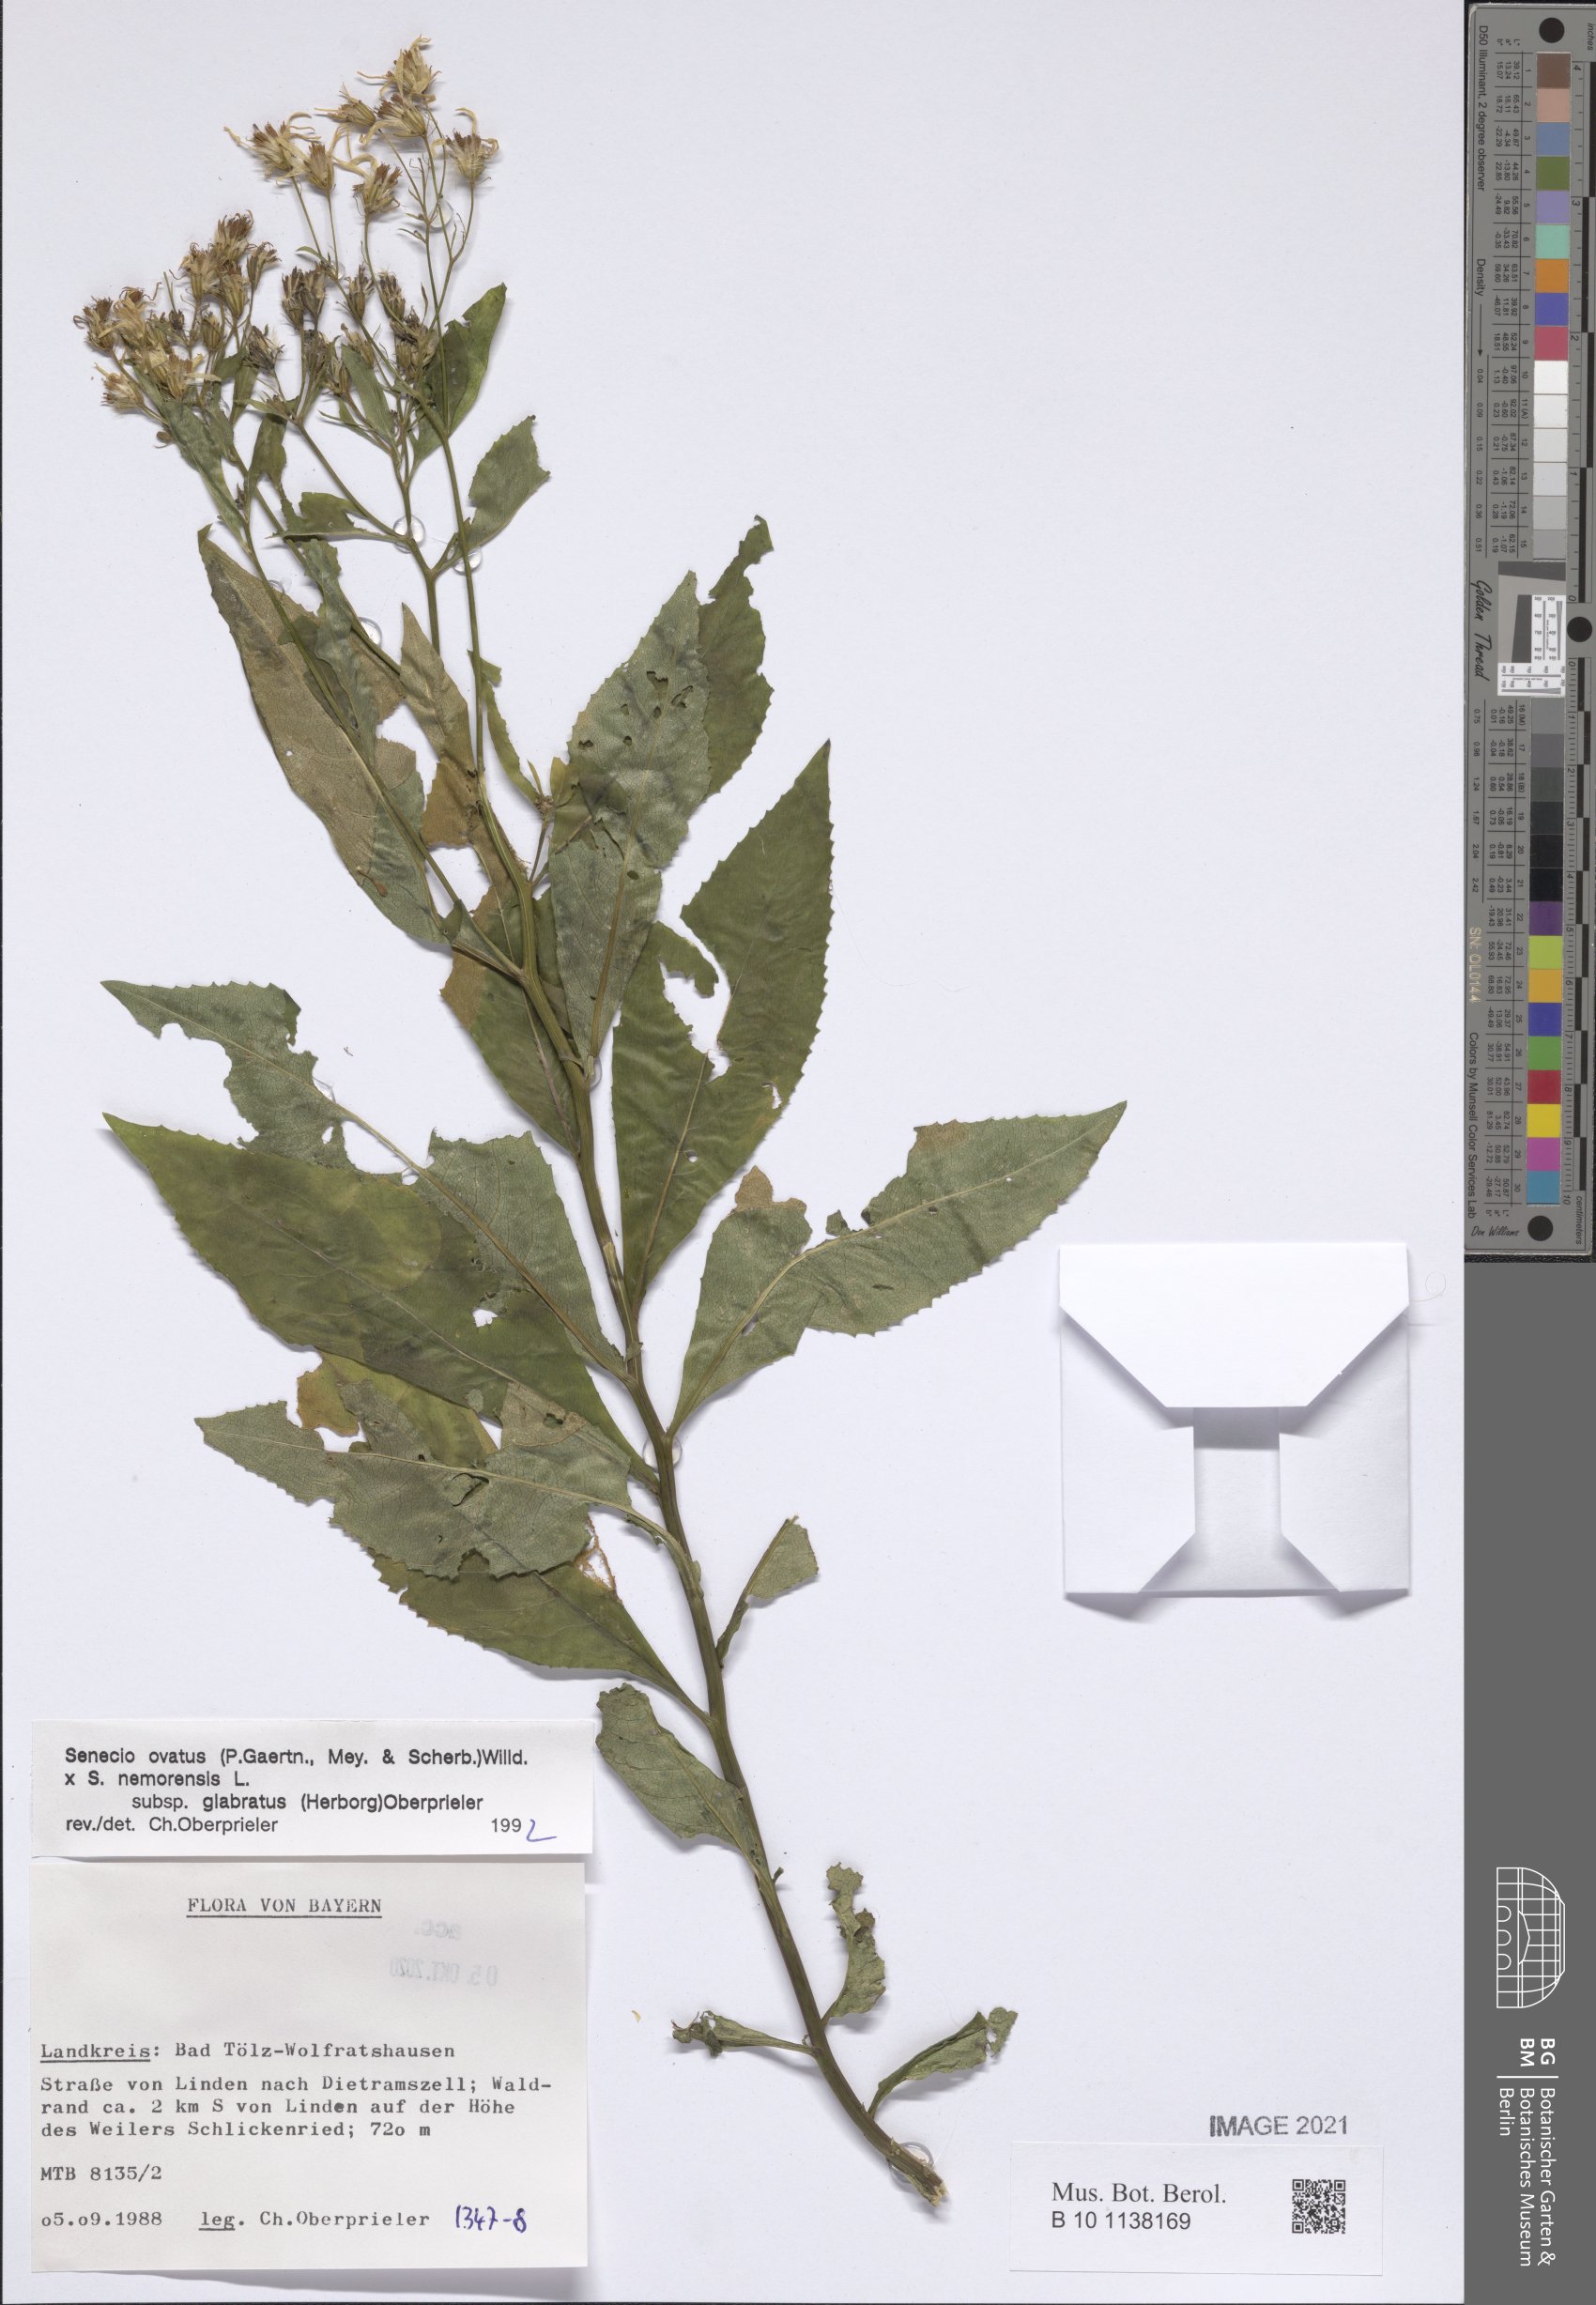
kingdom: Plantae
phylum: Tracheophyta
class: Magnoliopsida
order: Asterales
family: Asteraceae
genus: Senecio
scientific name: Senecio ovatus
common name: Wood ragwort
